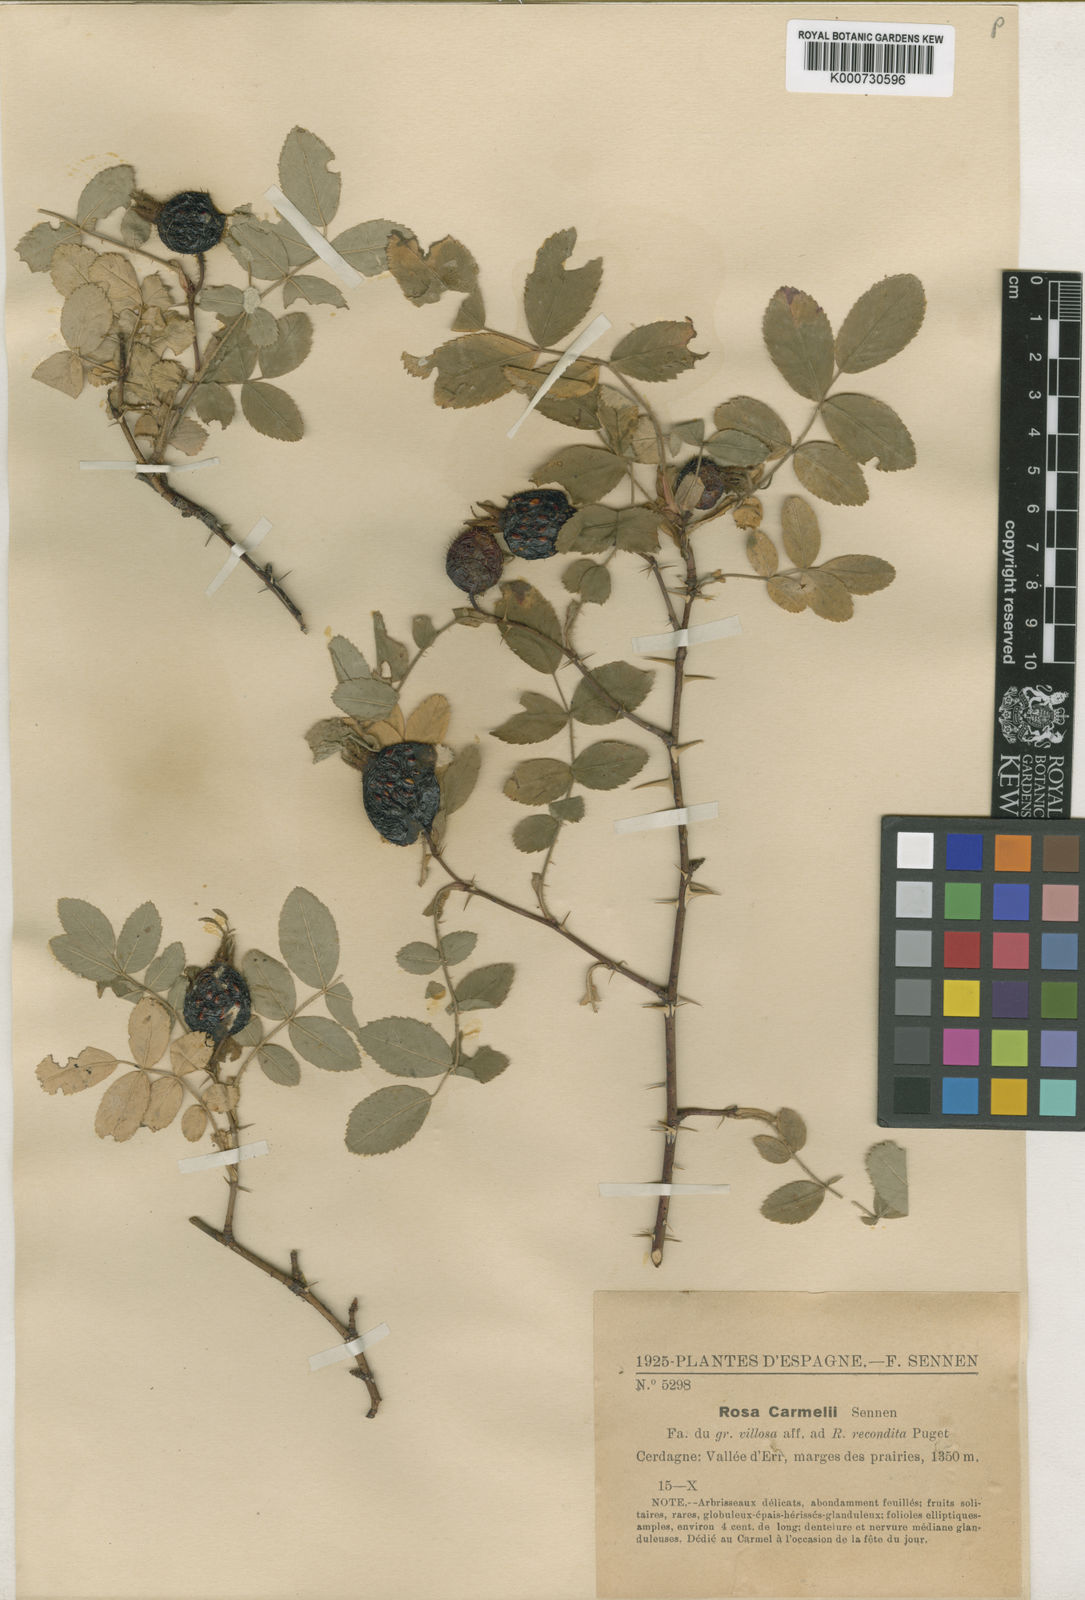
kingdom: Plantae
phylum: Tracheophyta
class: Magnoliopsida
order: Rosales
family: Rosaceae
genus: Rosa
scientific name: Rosa villosa
